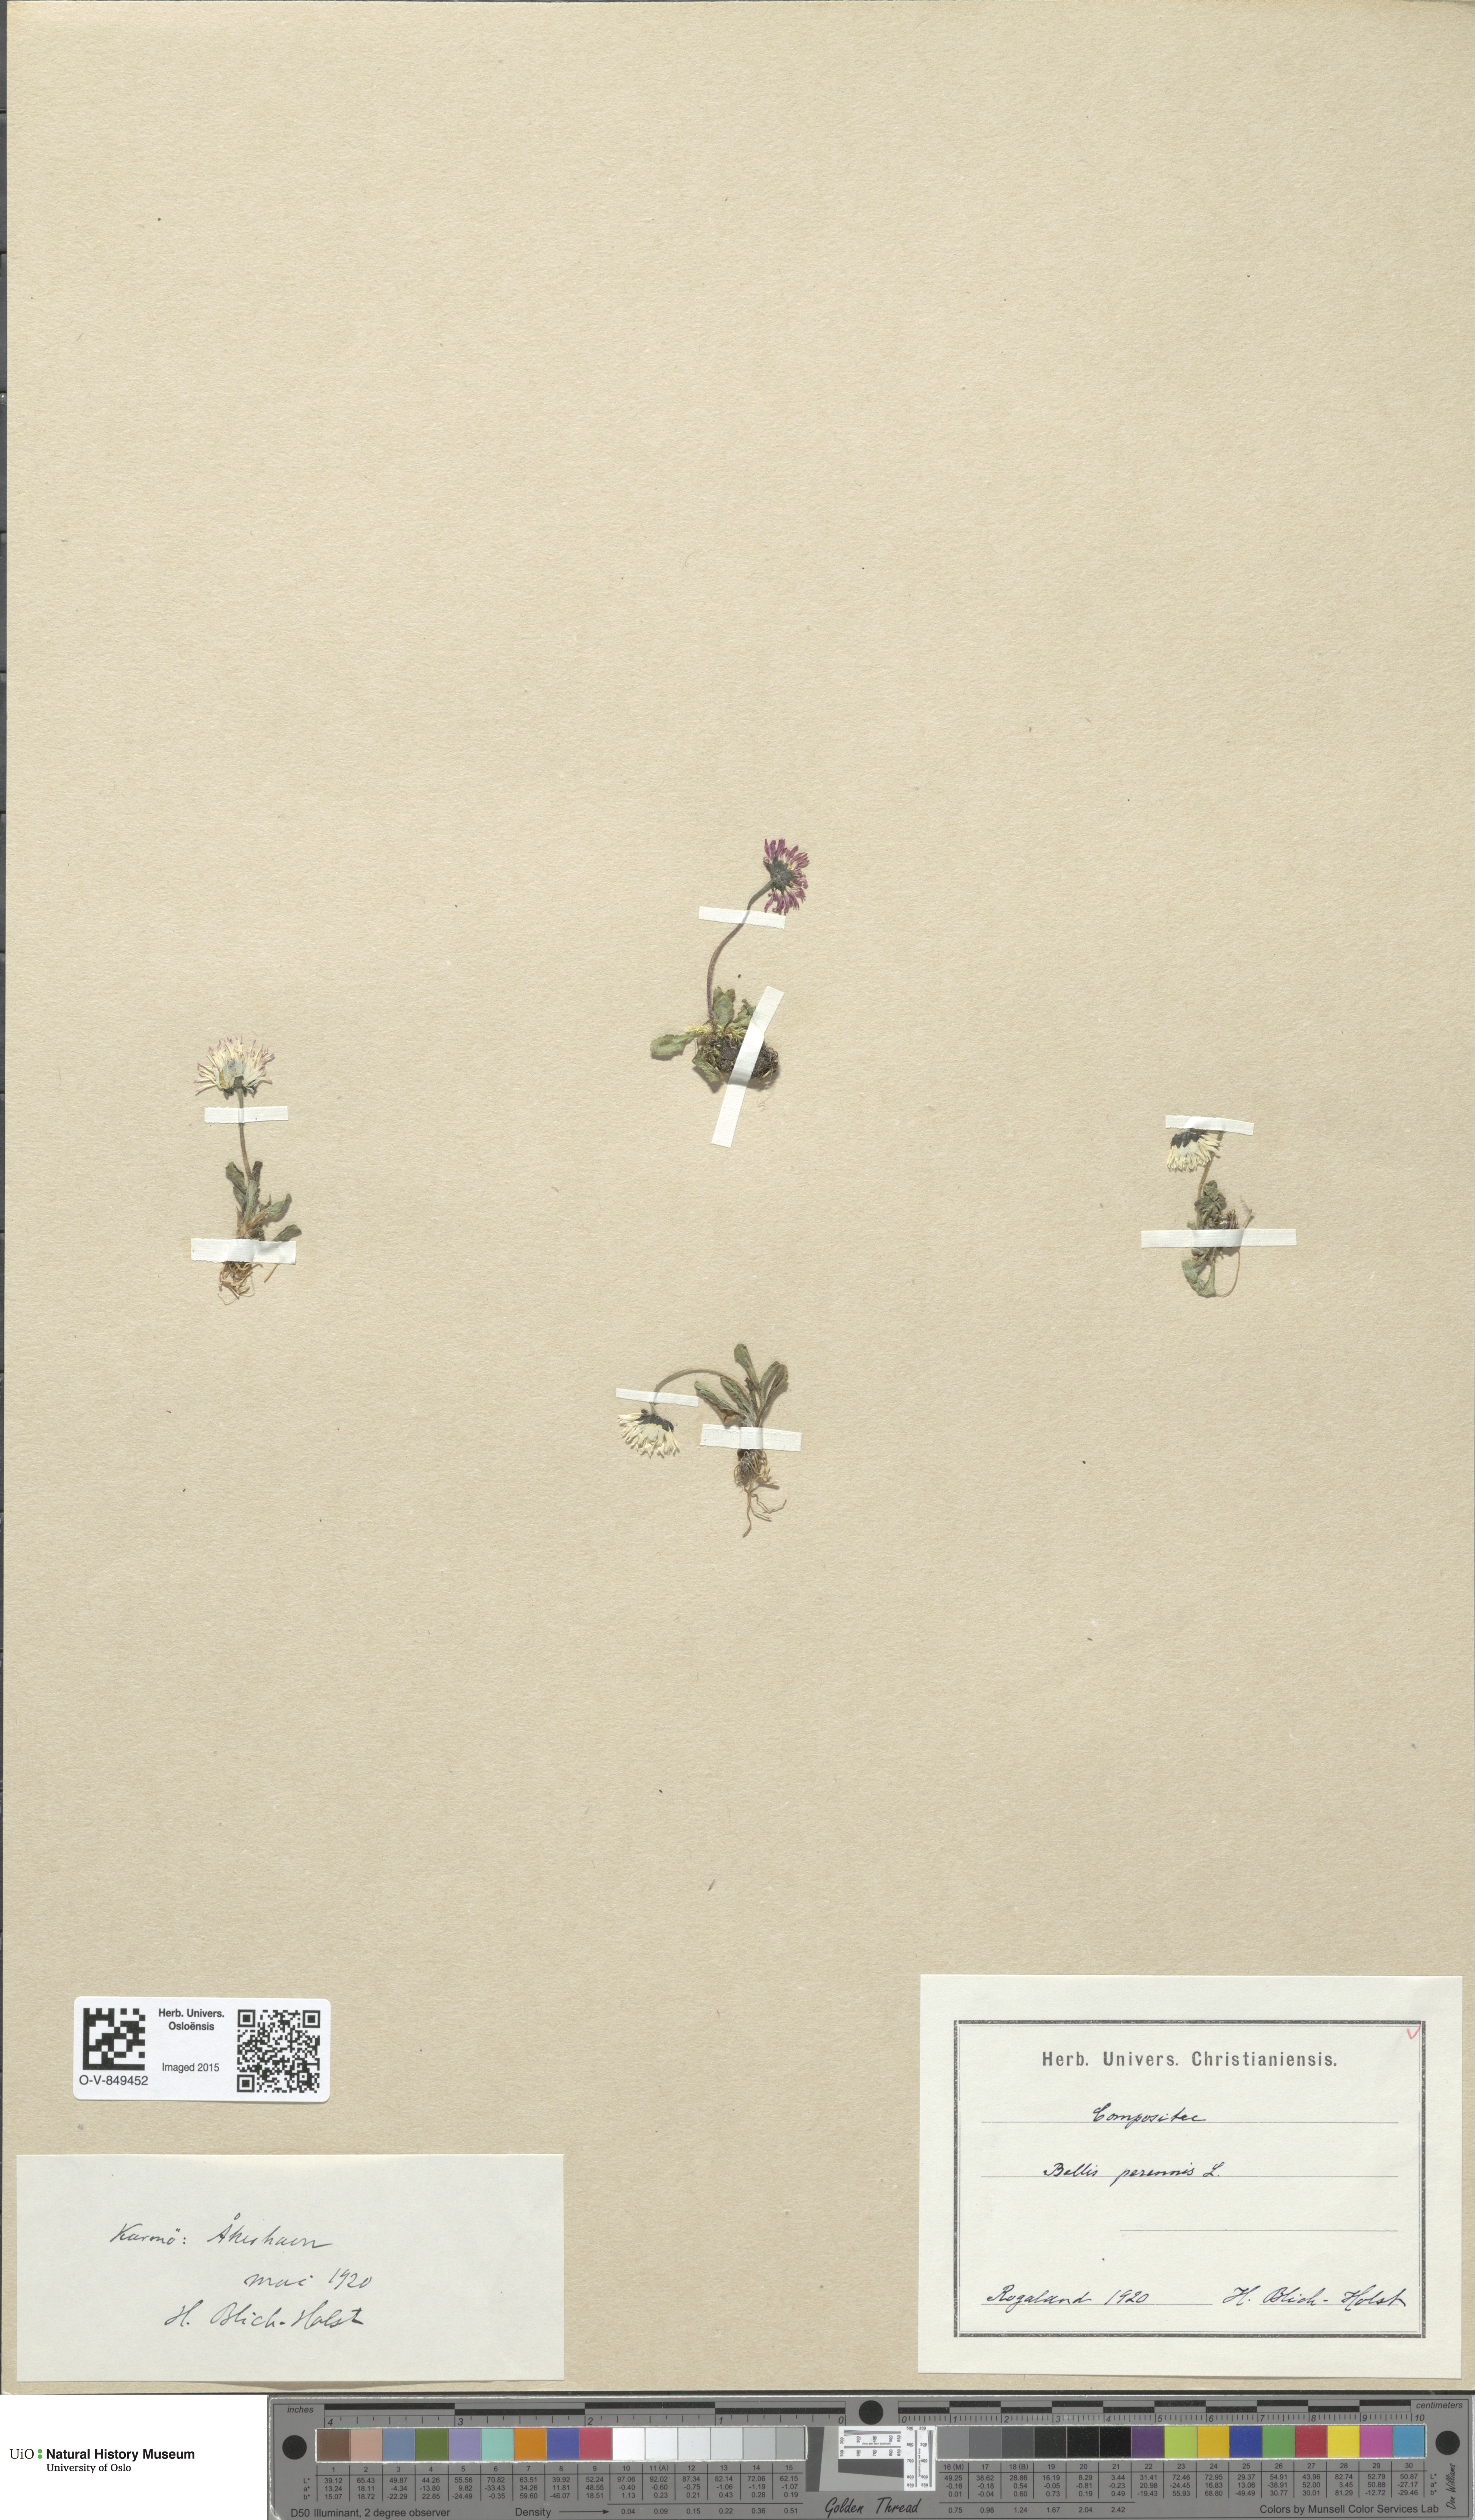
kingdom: Plantae
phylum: Tracheophyta
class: Magnoliopsida
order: Asterales
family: Asteraceae
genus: Bellis
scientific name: Bellis perennis
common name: Lawndaisy
